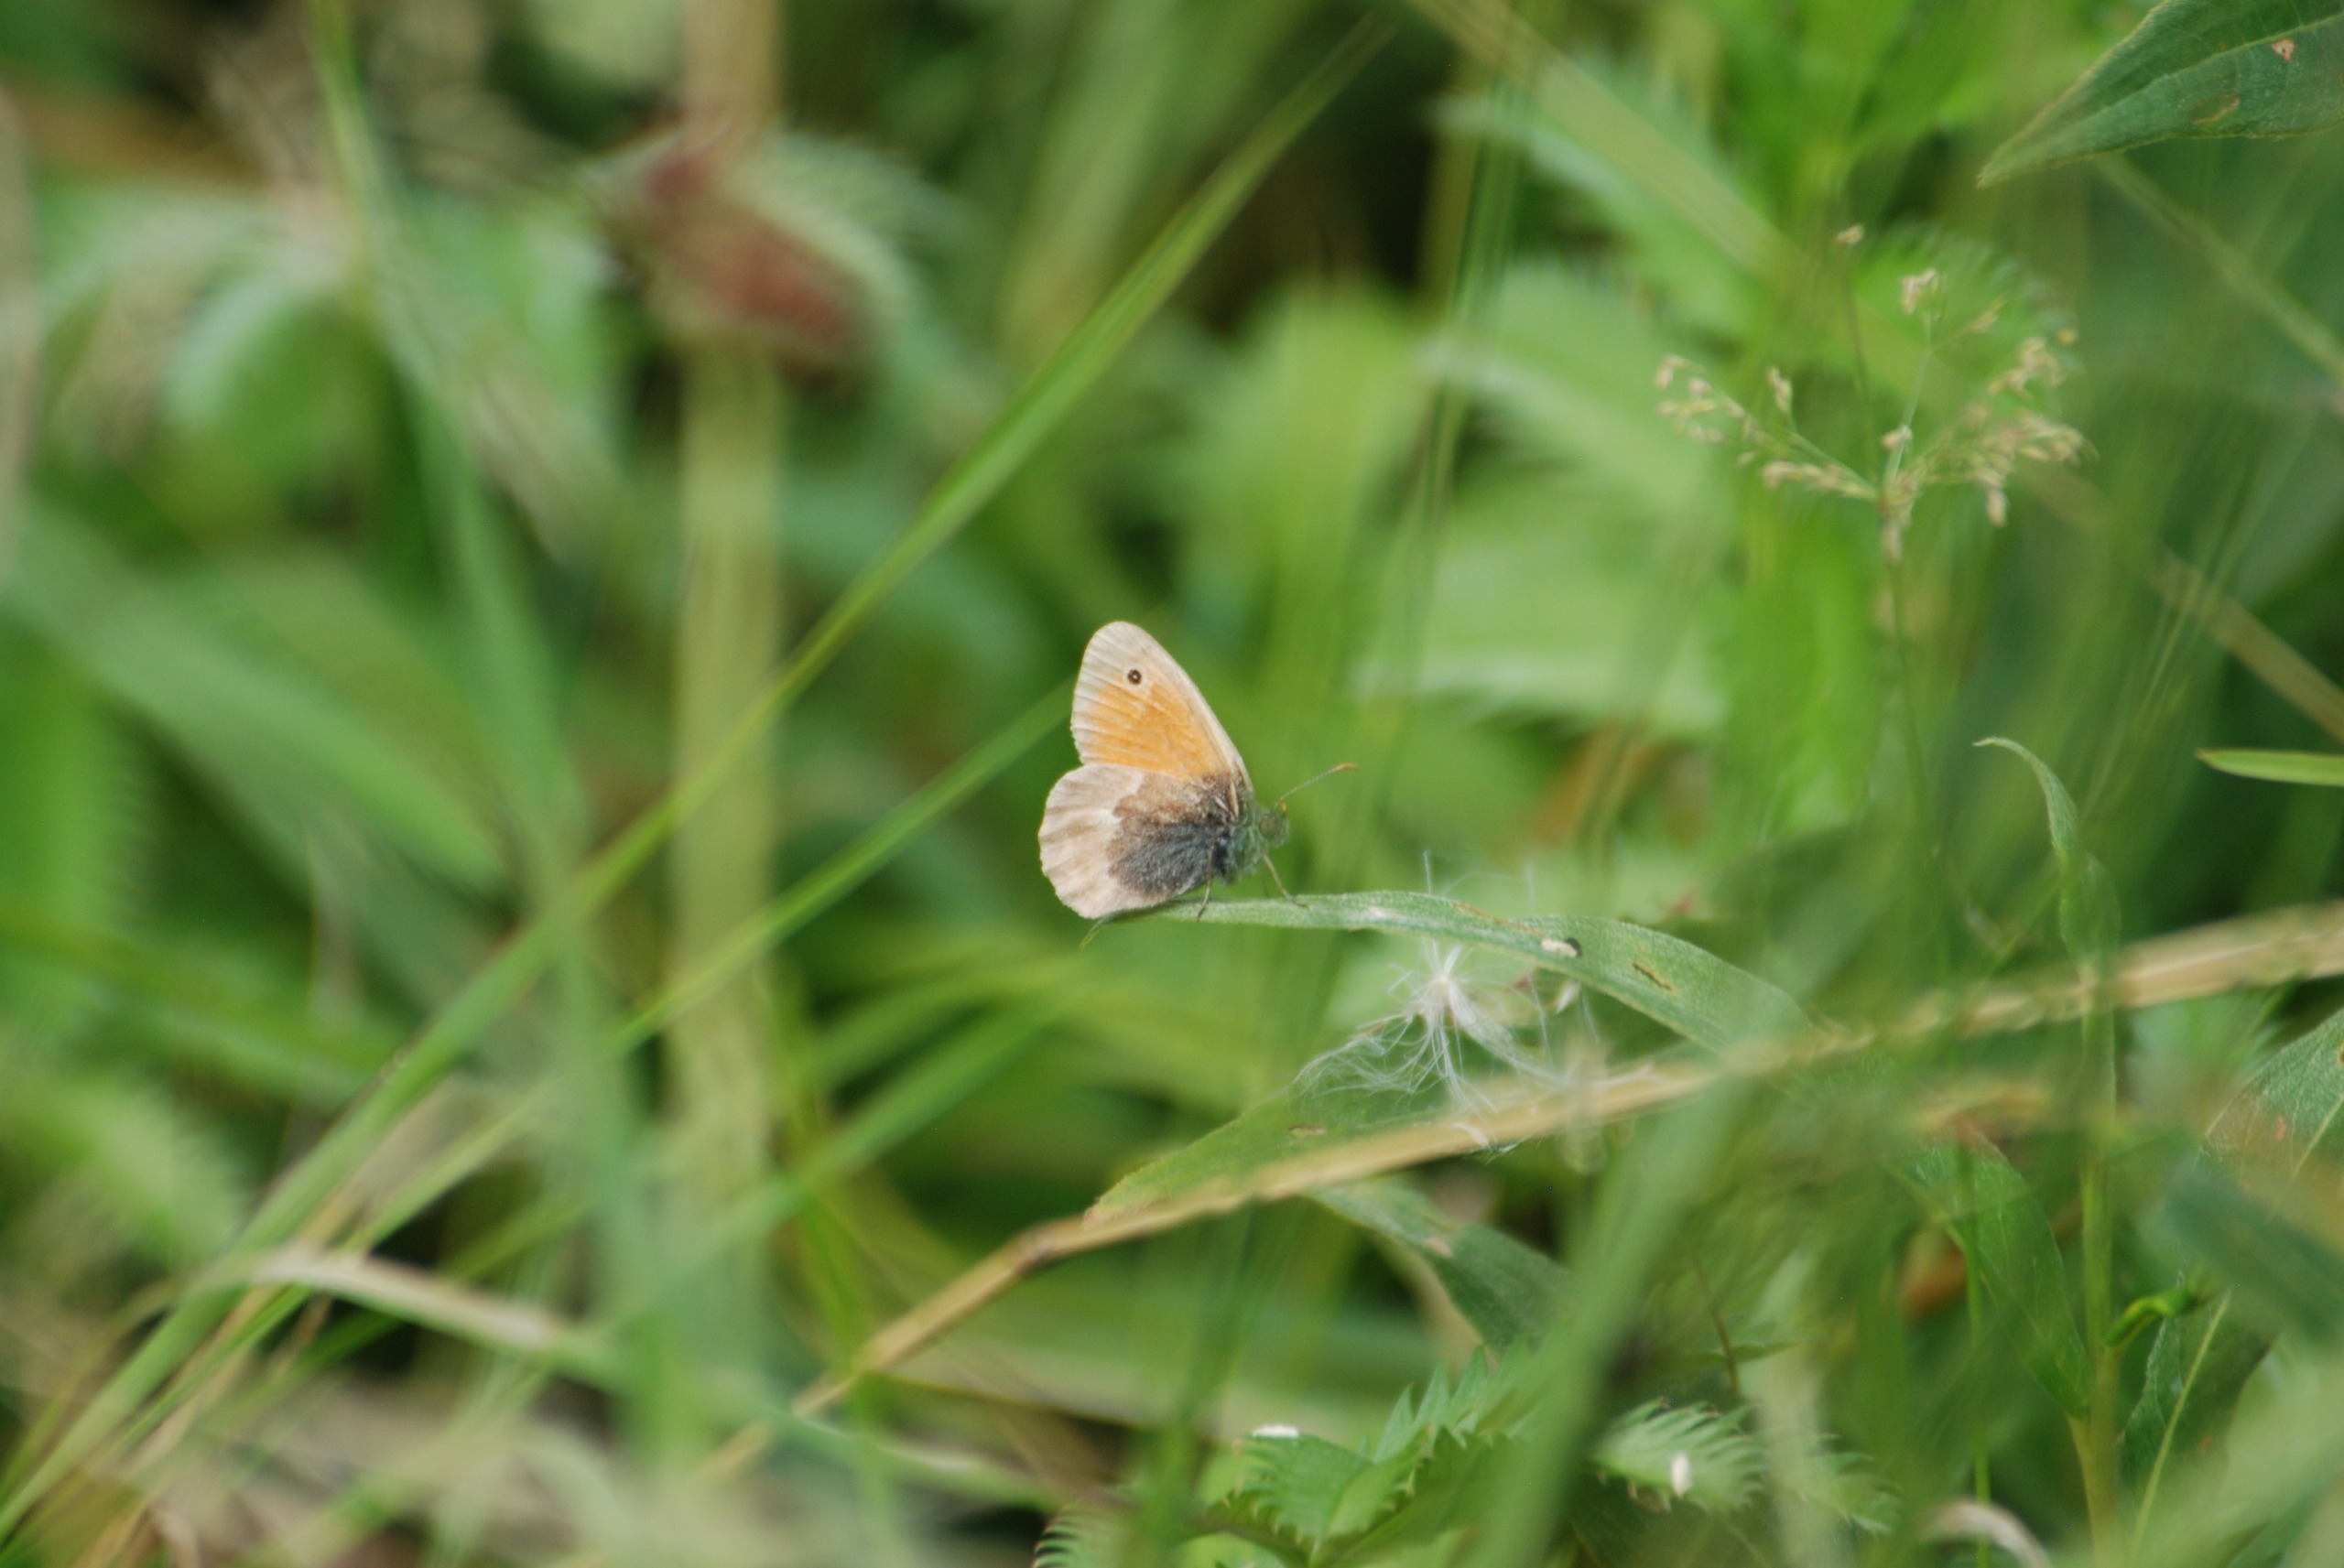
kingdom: Animalia
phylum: Arthropoda
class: Insecta
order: Lepidoptera
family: Nymphalidae
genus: Coenonympha
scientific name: Coenonympha pamphilus
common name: Okkergul randøje
